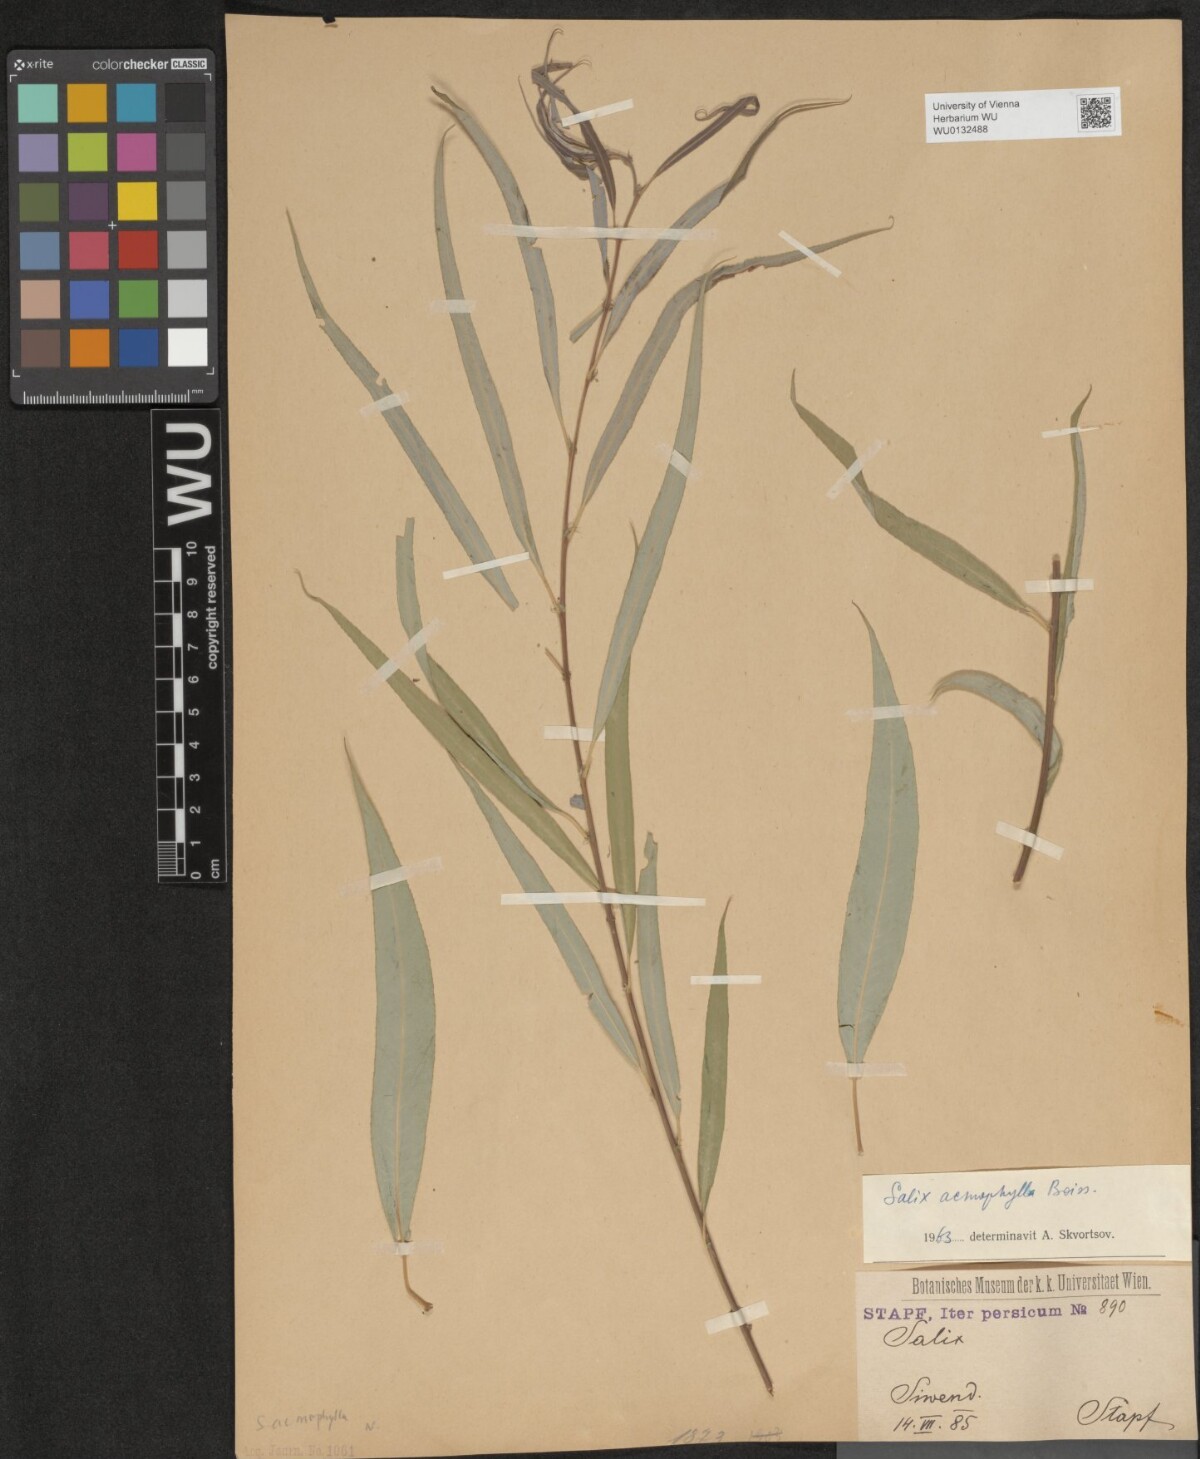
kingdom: Plantae
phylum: Tracheophyta
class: Magnoliopsida
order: Malpighiales
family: Salicaceae
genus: Salix
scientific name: Salix acmophylla
